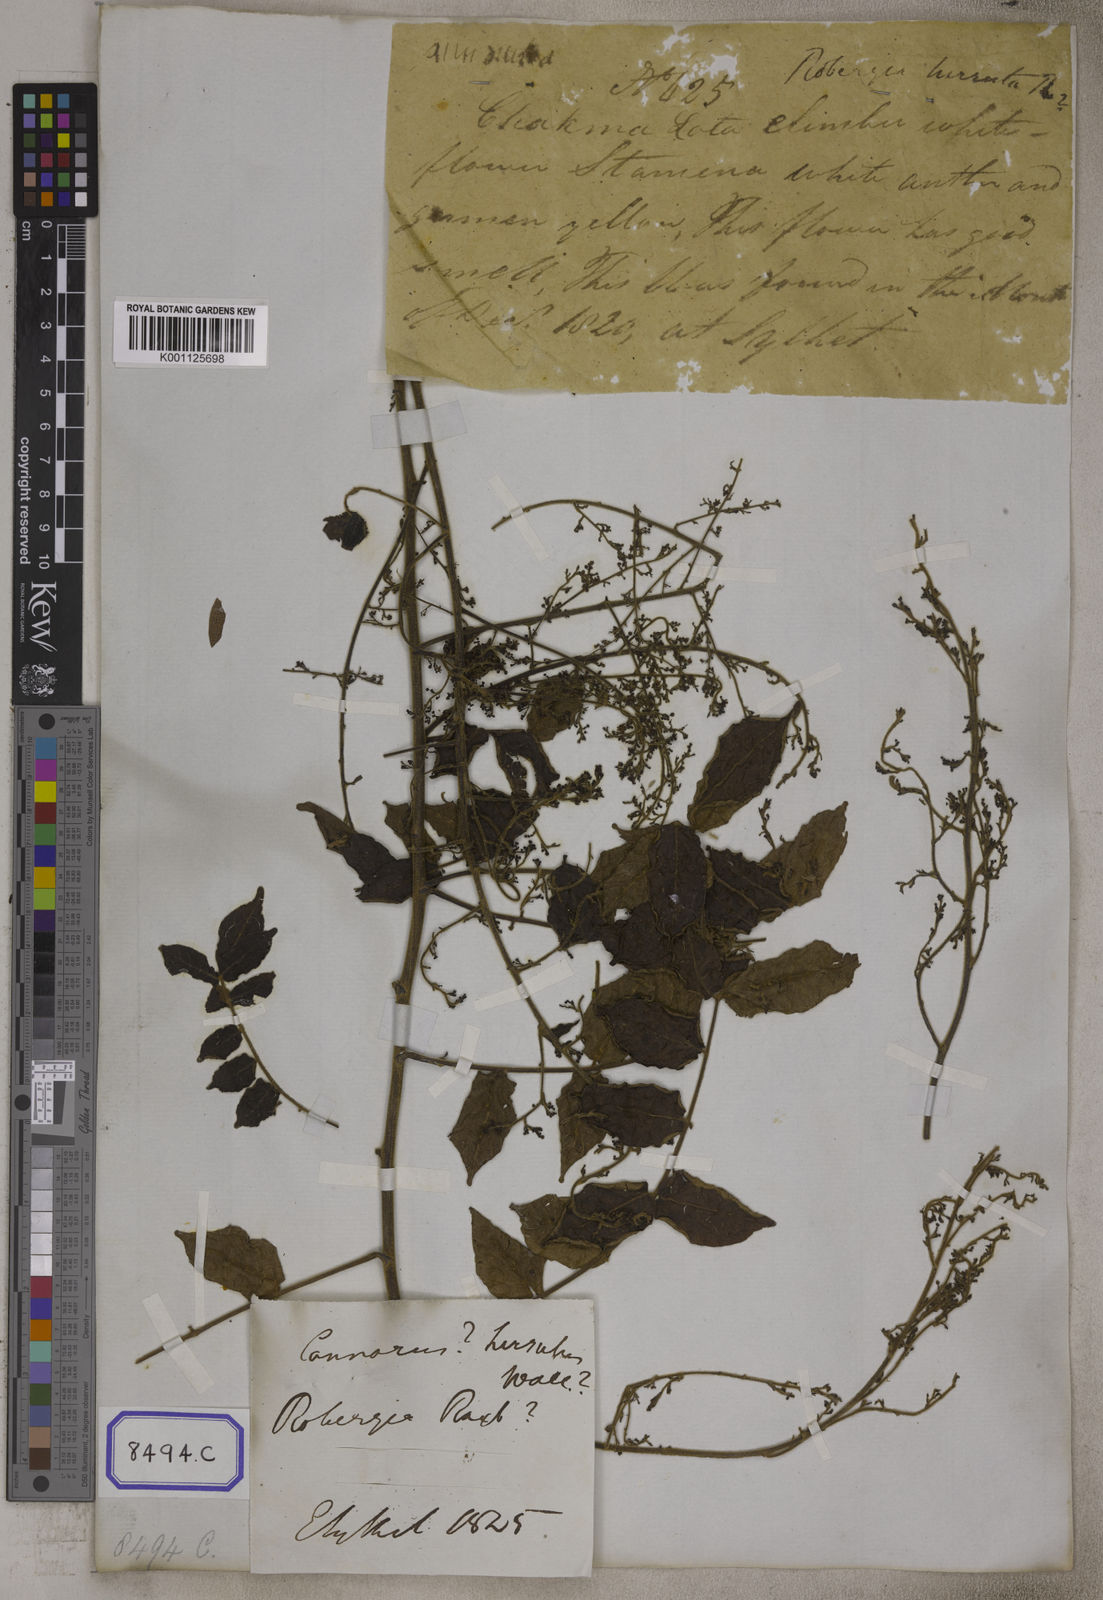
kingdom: Plantae
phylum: Tracheophyta
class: Magnoliopsida
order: Sapindales
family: Burseraceae
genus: Commiphora
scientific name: Commiphora caudata
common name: Hill-mango
